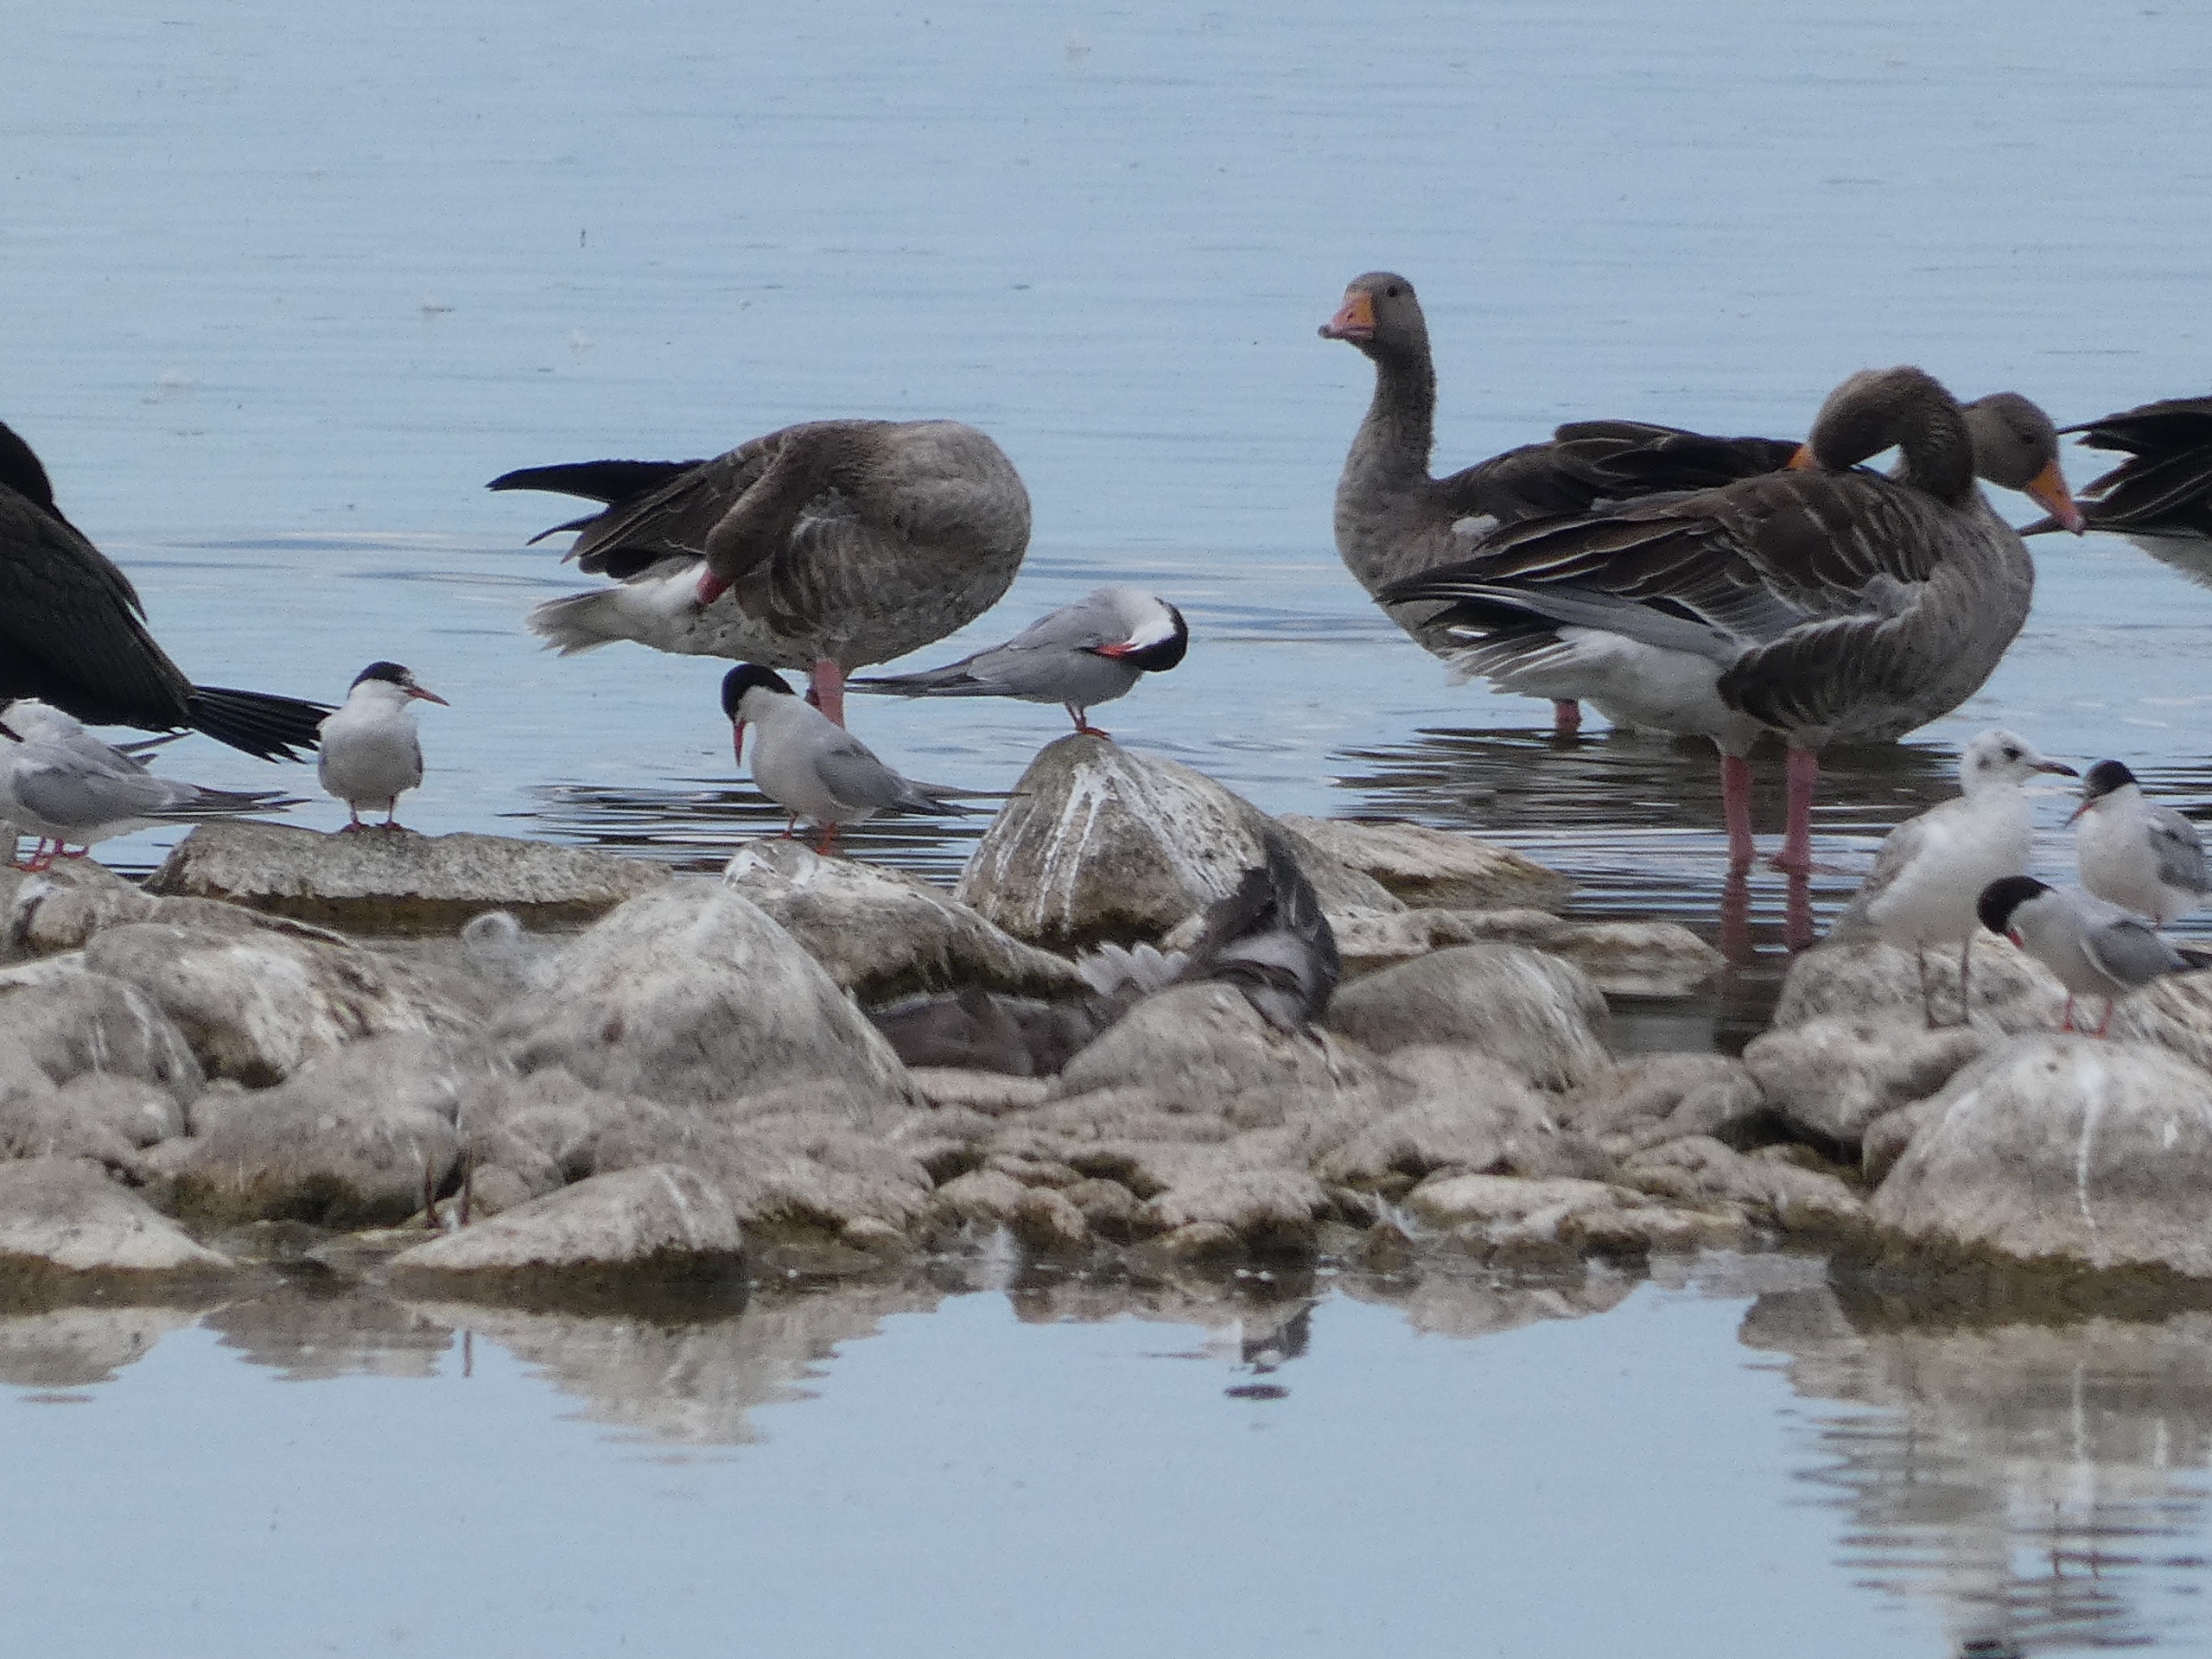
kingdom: Animalia
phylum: Chordata
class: Aves
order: Charadriiformes
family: Laridae
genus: Sterna
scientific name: Sterna hirundo
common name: Fjordterne
